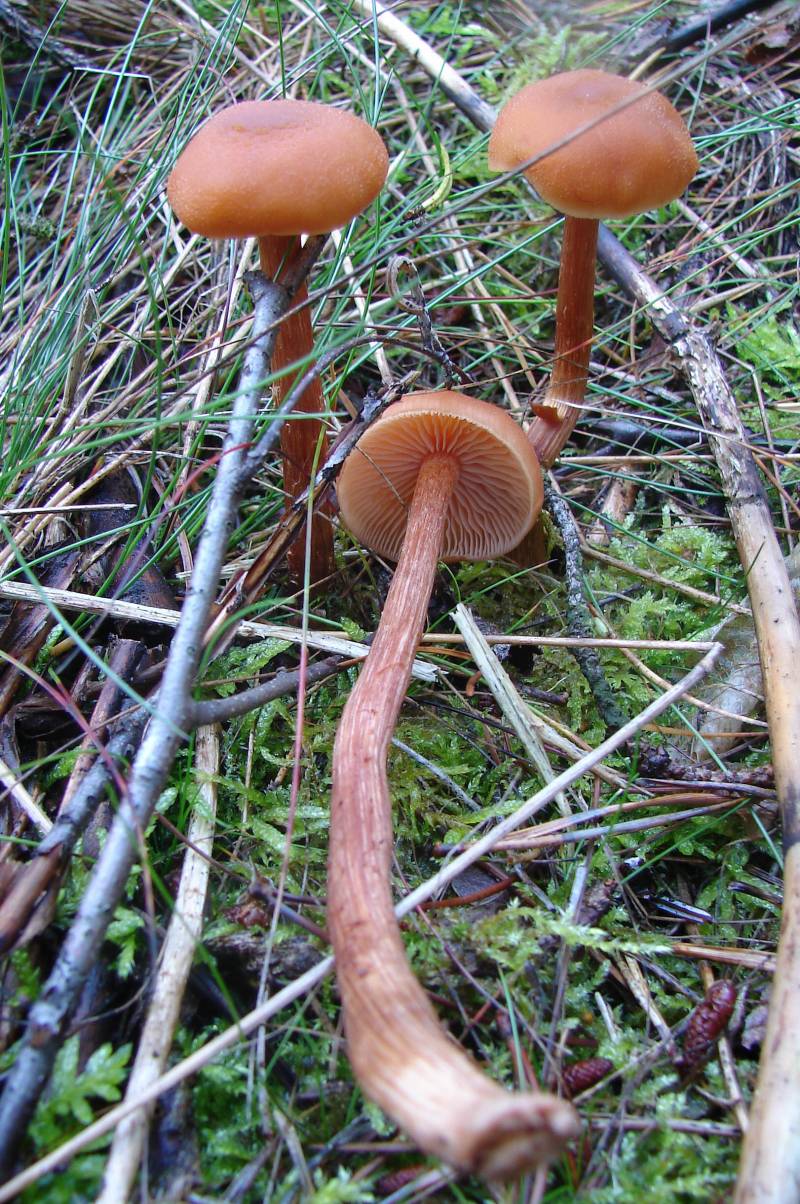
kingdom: Fungi
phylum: Basidiomycota
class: Agaricomycetes
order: Agaricales
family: Hydnangiaceae
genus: Laccaria
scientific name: Laccaria proxima
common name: stor ametysthat
